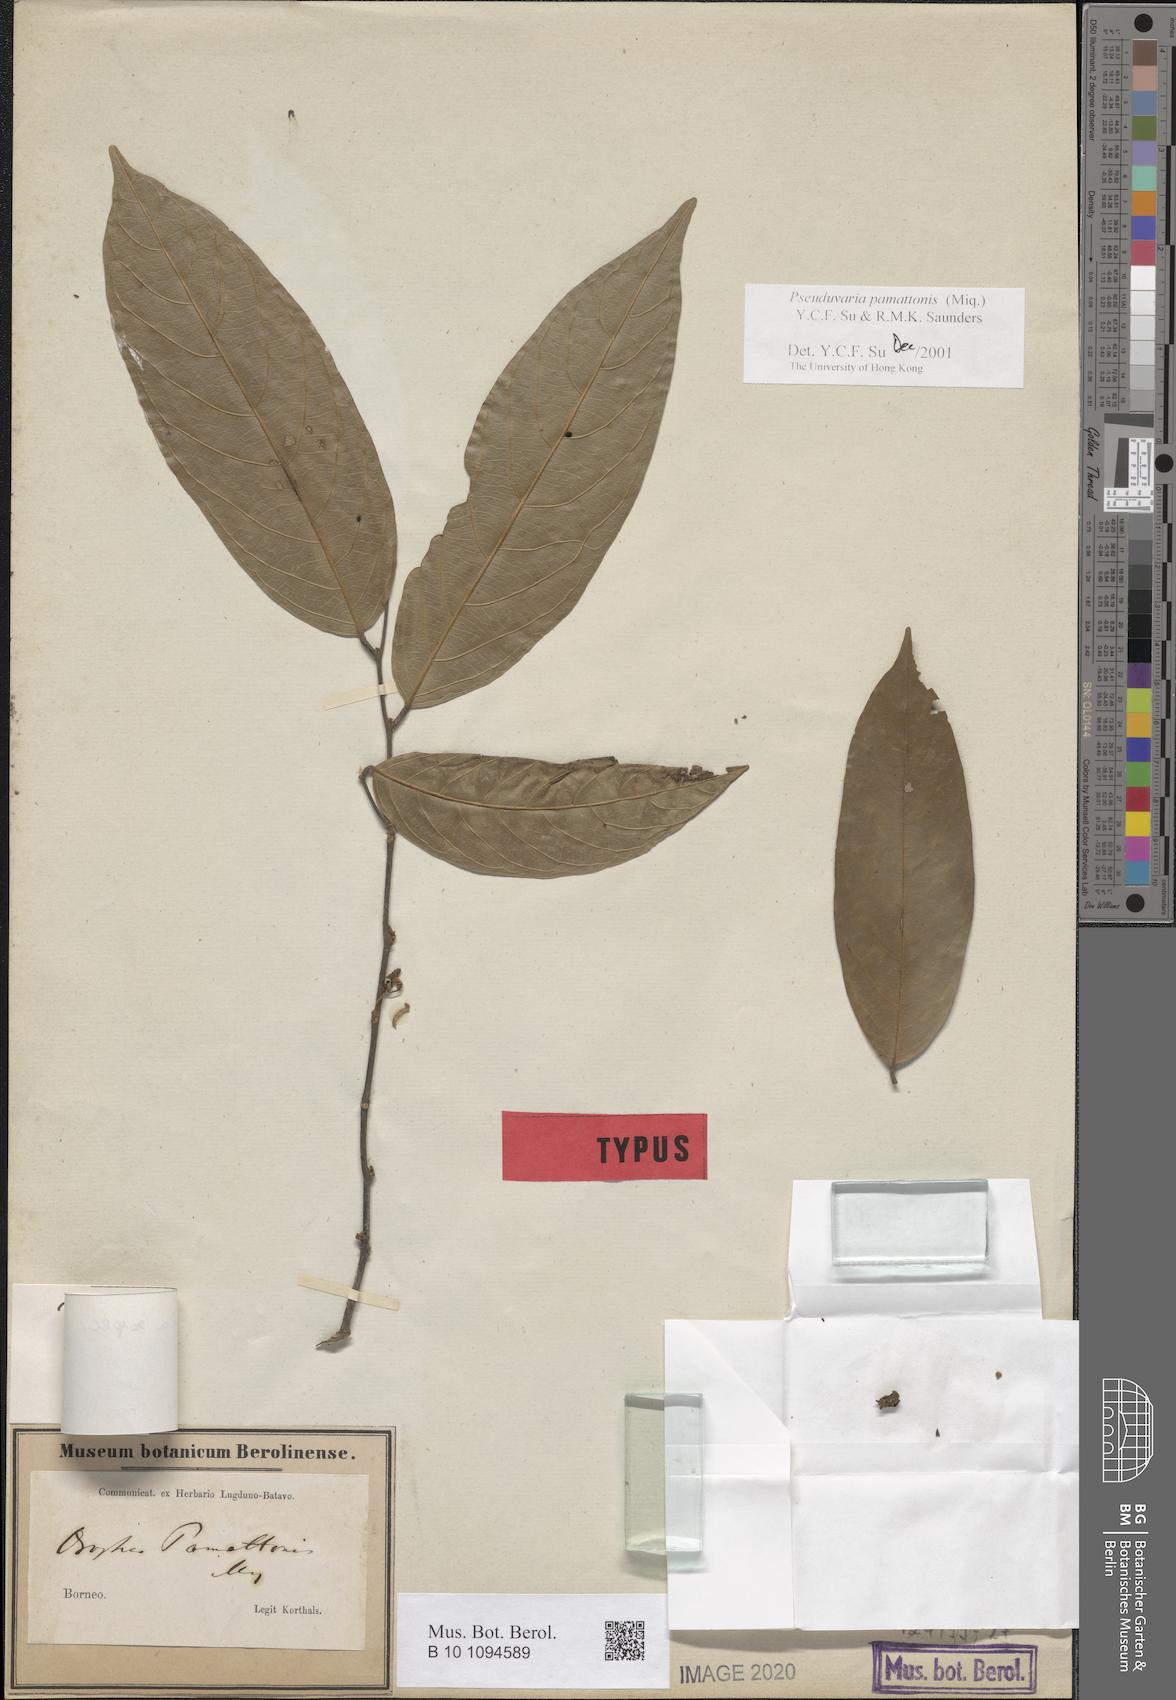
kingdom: Plantae
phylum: Tracheophyta
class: Magnoliopsida
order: Magnoliales
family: Annonaceae
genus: Pseuduvaria
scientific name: Pseuduvaria pamattonis
